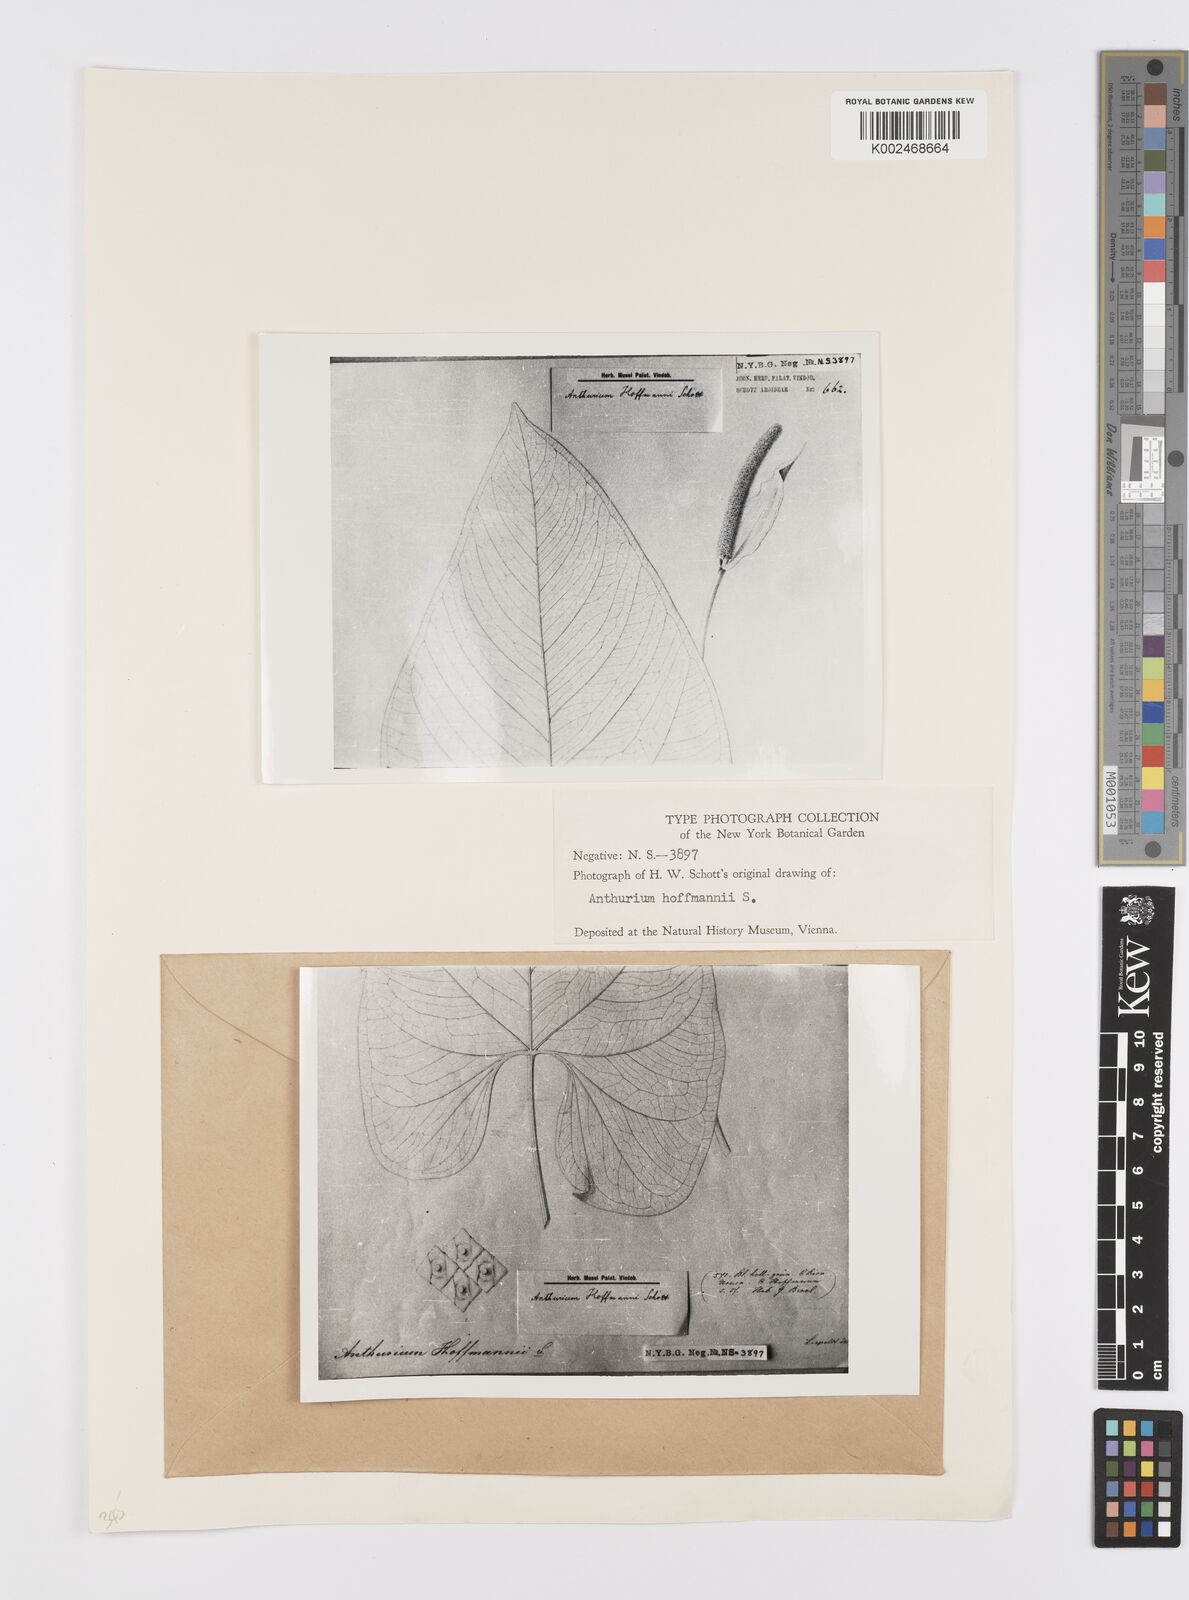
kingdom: Plantae
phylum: Tracheophyta
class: Liliopsida
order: Alismatales
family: Araceae
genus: Anthurium
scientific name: Anthurium hoffmannii
